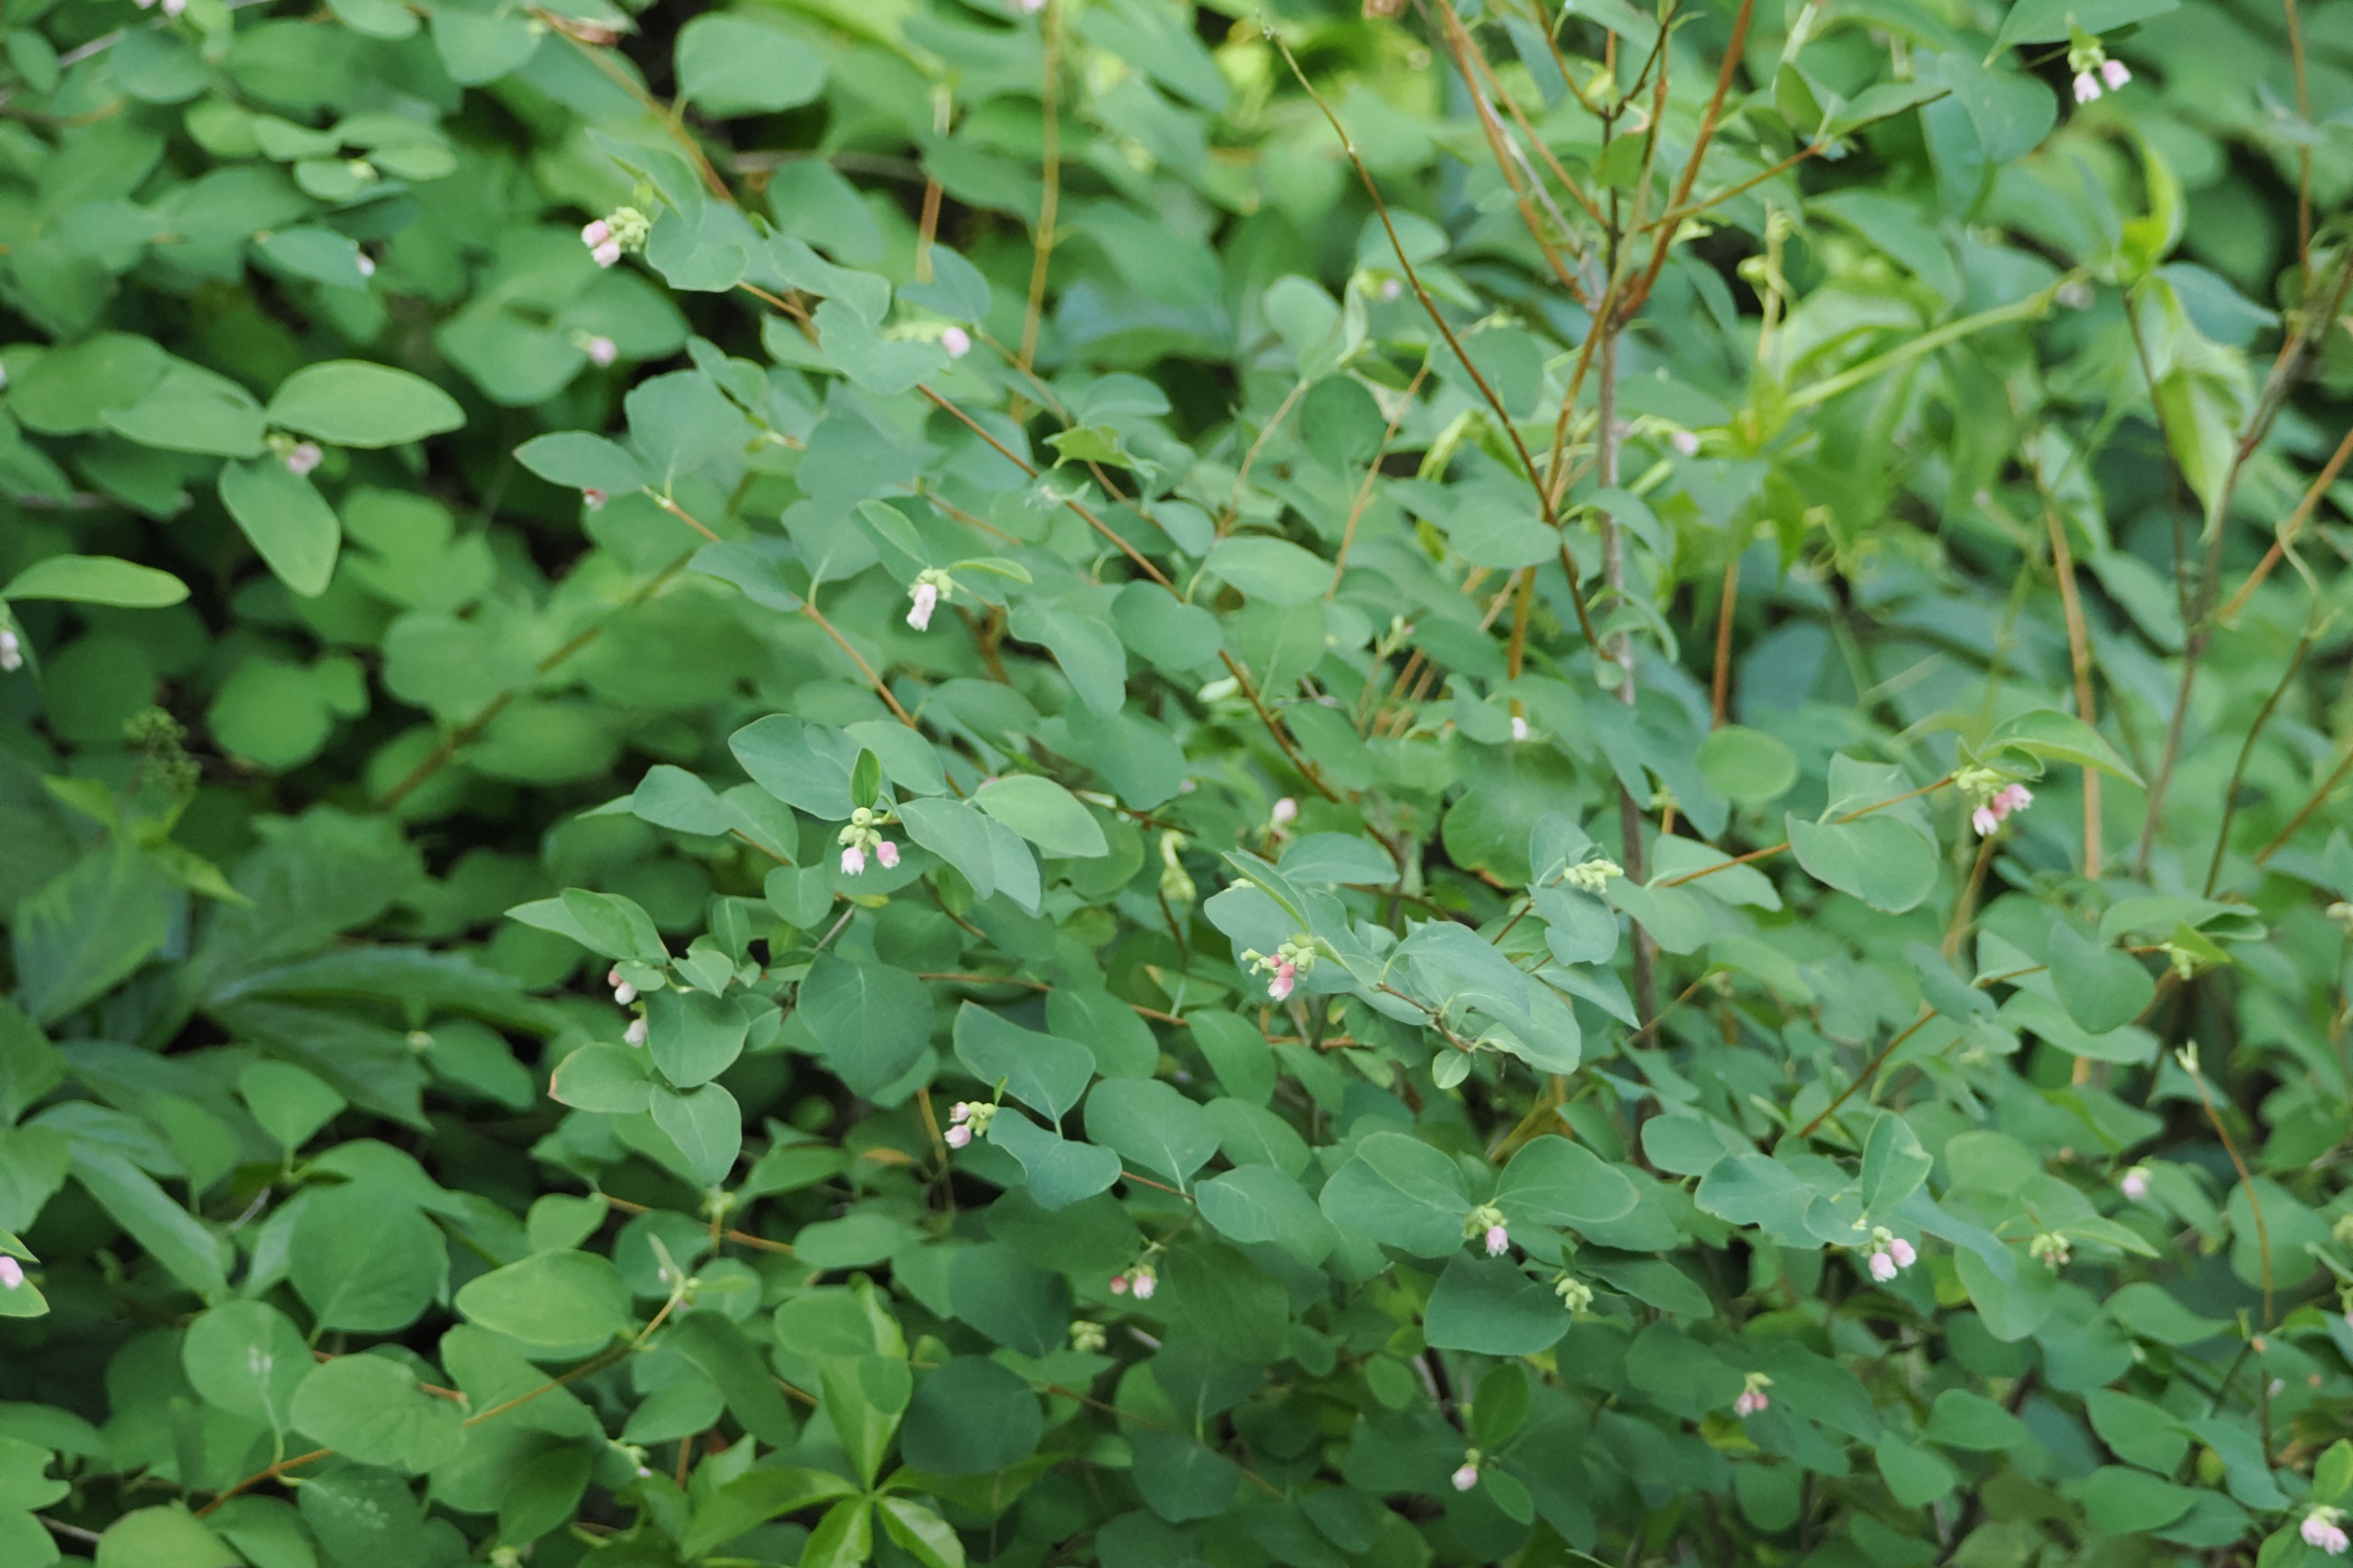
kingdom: Plantae
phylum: Tracheophyta
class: Magnoliopsida
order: Dipsacales
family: Caprifoliaceae
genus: Symphoricarpos
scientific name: Symphoricarpos albus
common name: Almindelig snebær
